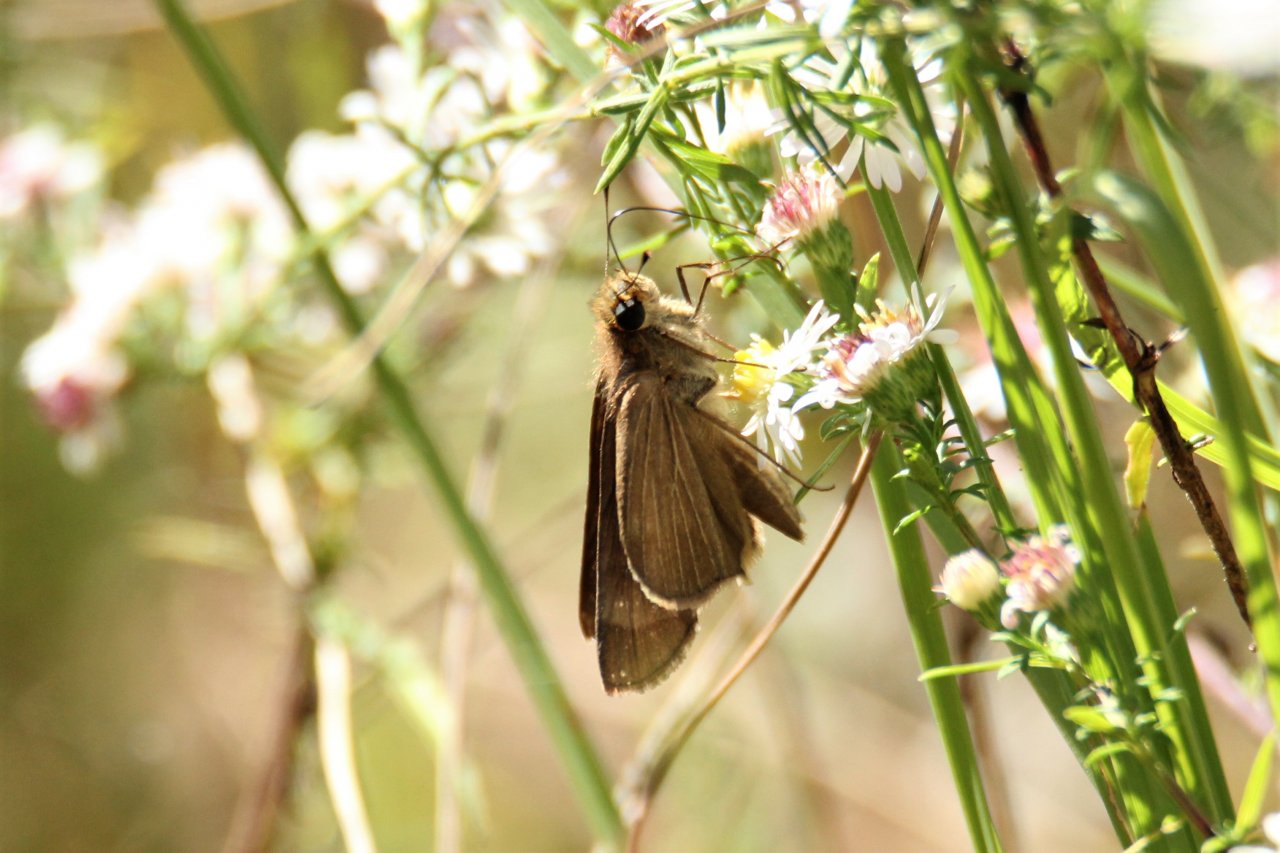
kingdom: Animalia
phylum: Arthropoda
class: Insecta
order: Lepidoptera
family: Hesperiidae
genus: Panoquina
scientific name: Panoquina ocola
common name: Ocola Skipper
